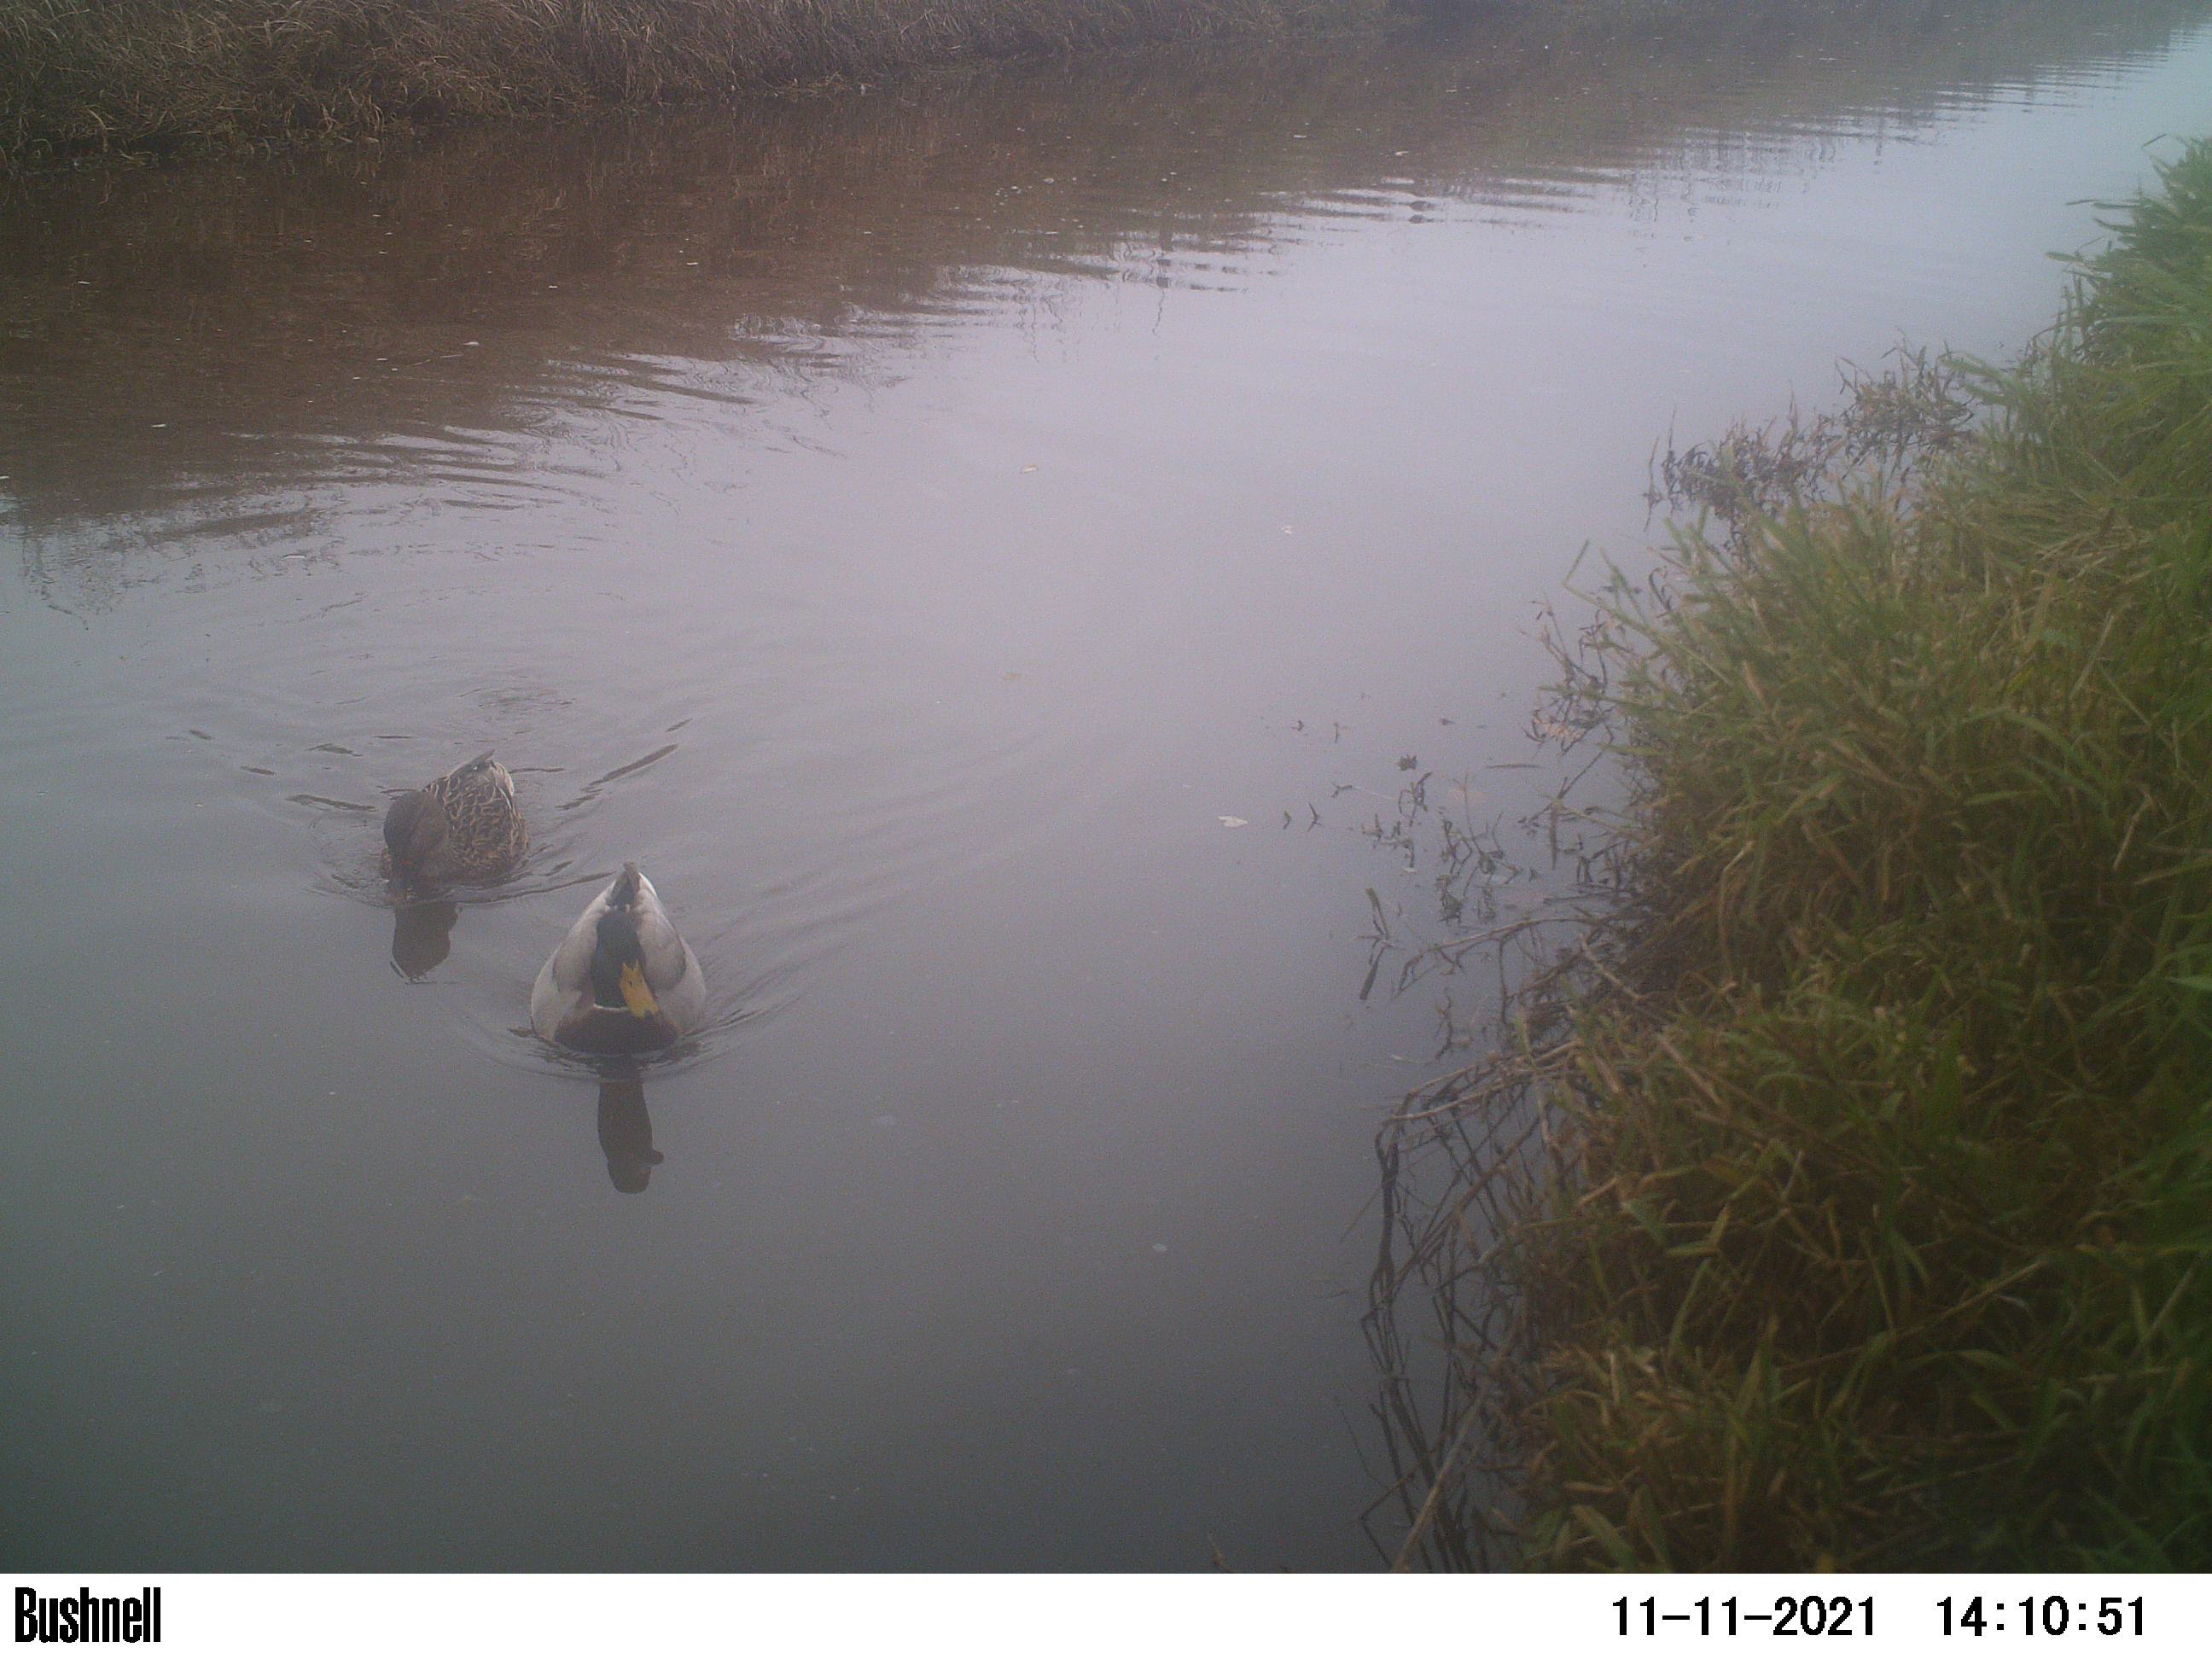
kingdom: Animalia
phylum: Chordata
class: Aves
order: Anseriformes
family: Anatidae
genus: Anas
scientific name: Anas
